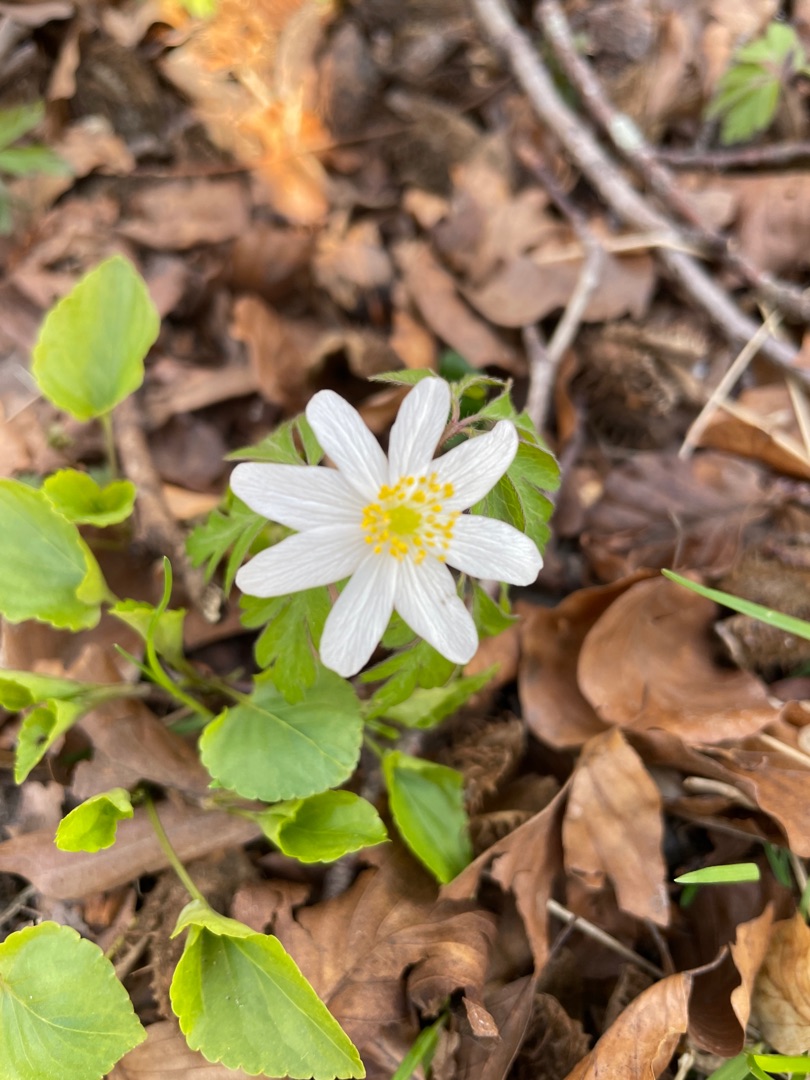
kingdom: Plantae
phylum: Tracheophyta
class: Magnoliopsida
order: Ranunculales
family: Ranunculaceae
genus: Anemone
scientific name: Anemone nemorosa
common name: Hvid anemone
